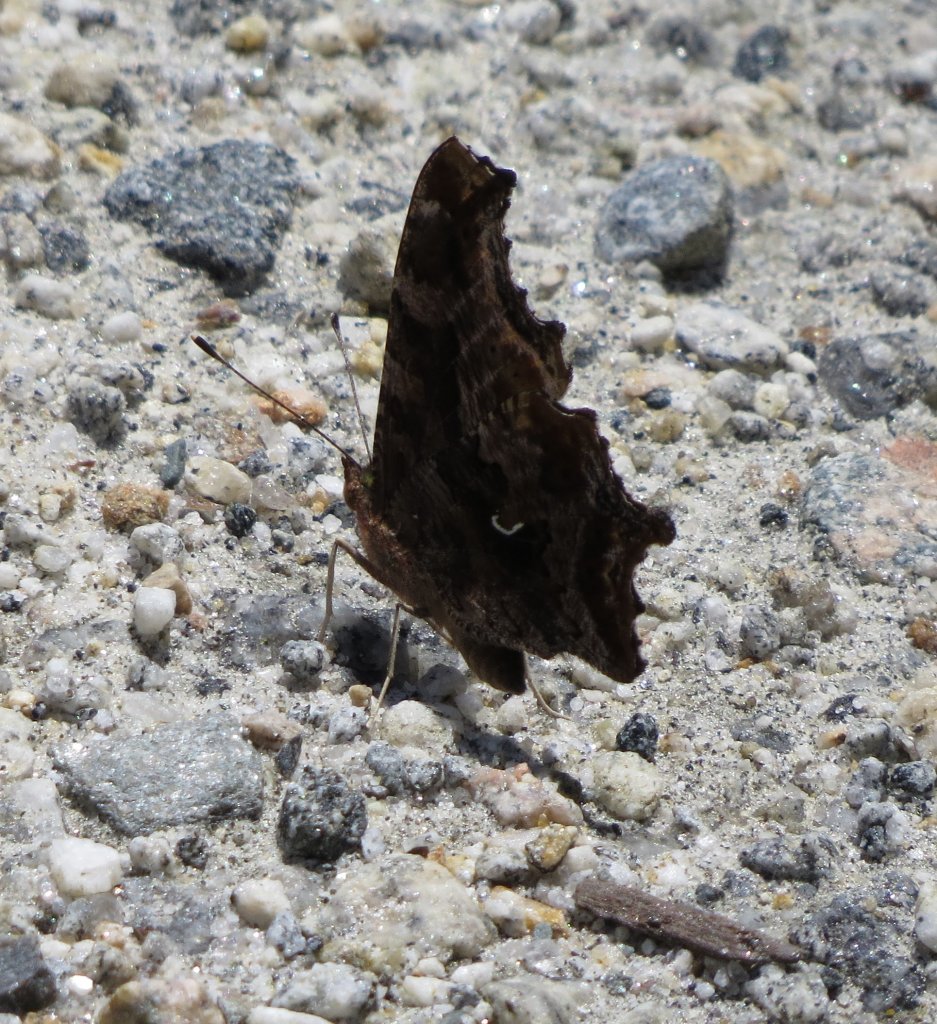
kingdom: Animalia
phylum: Arthropoda
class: Insecta
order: Lepidoptera
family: Nymphalidae
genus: Polygonia
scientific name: Polygonia comma
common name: Eastern Comma
